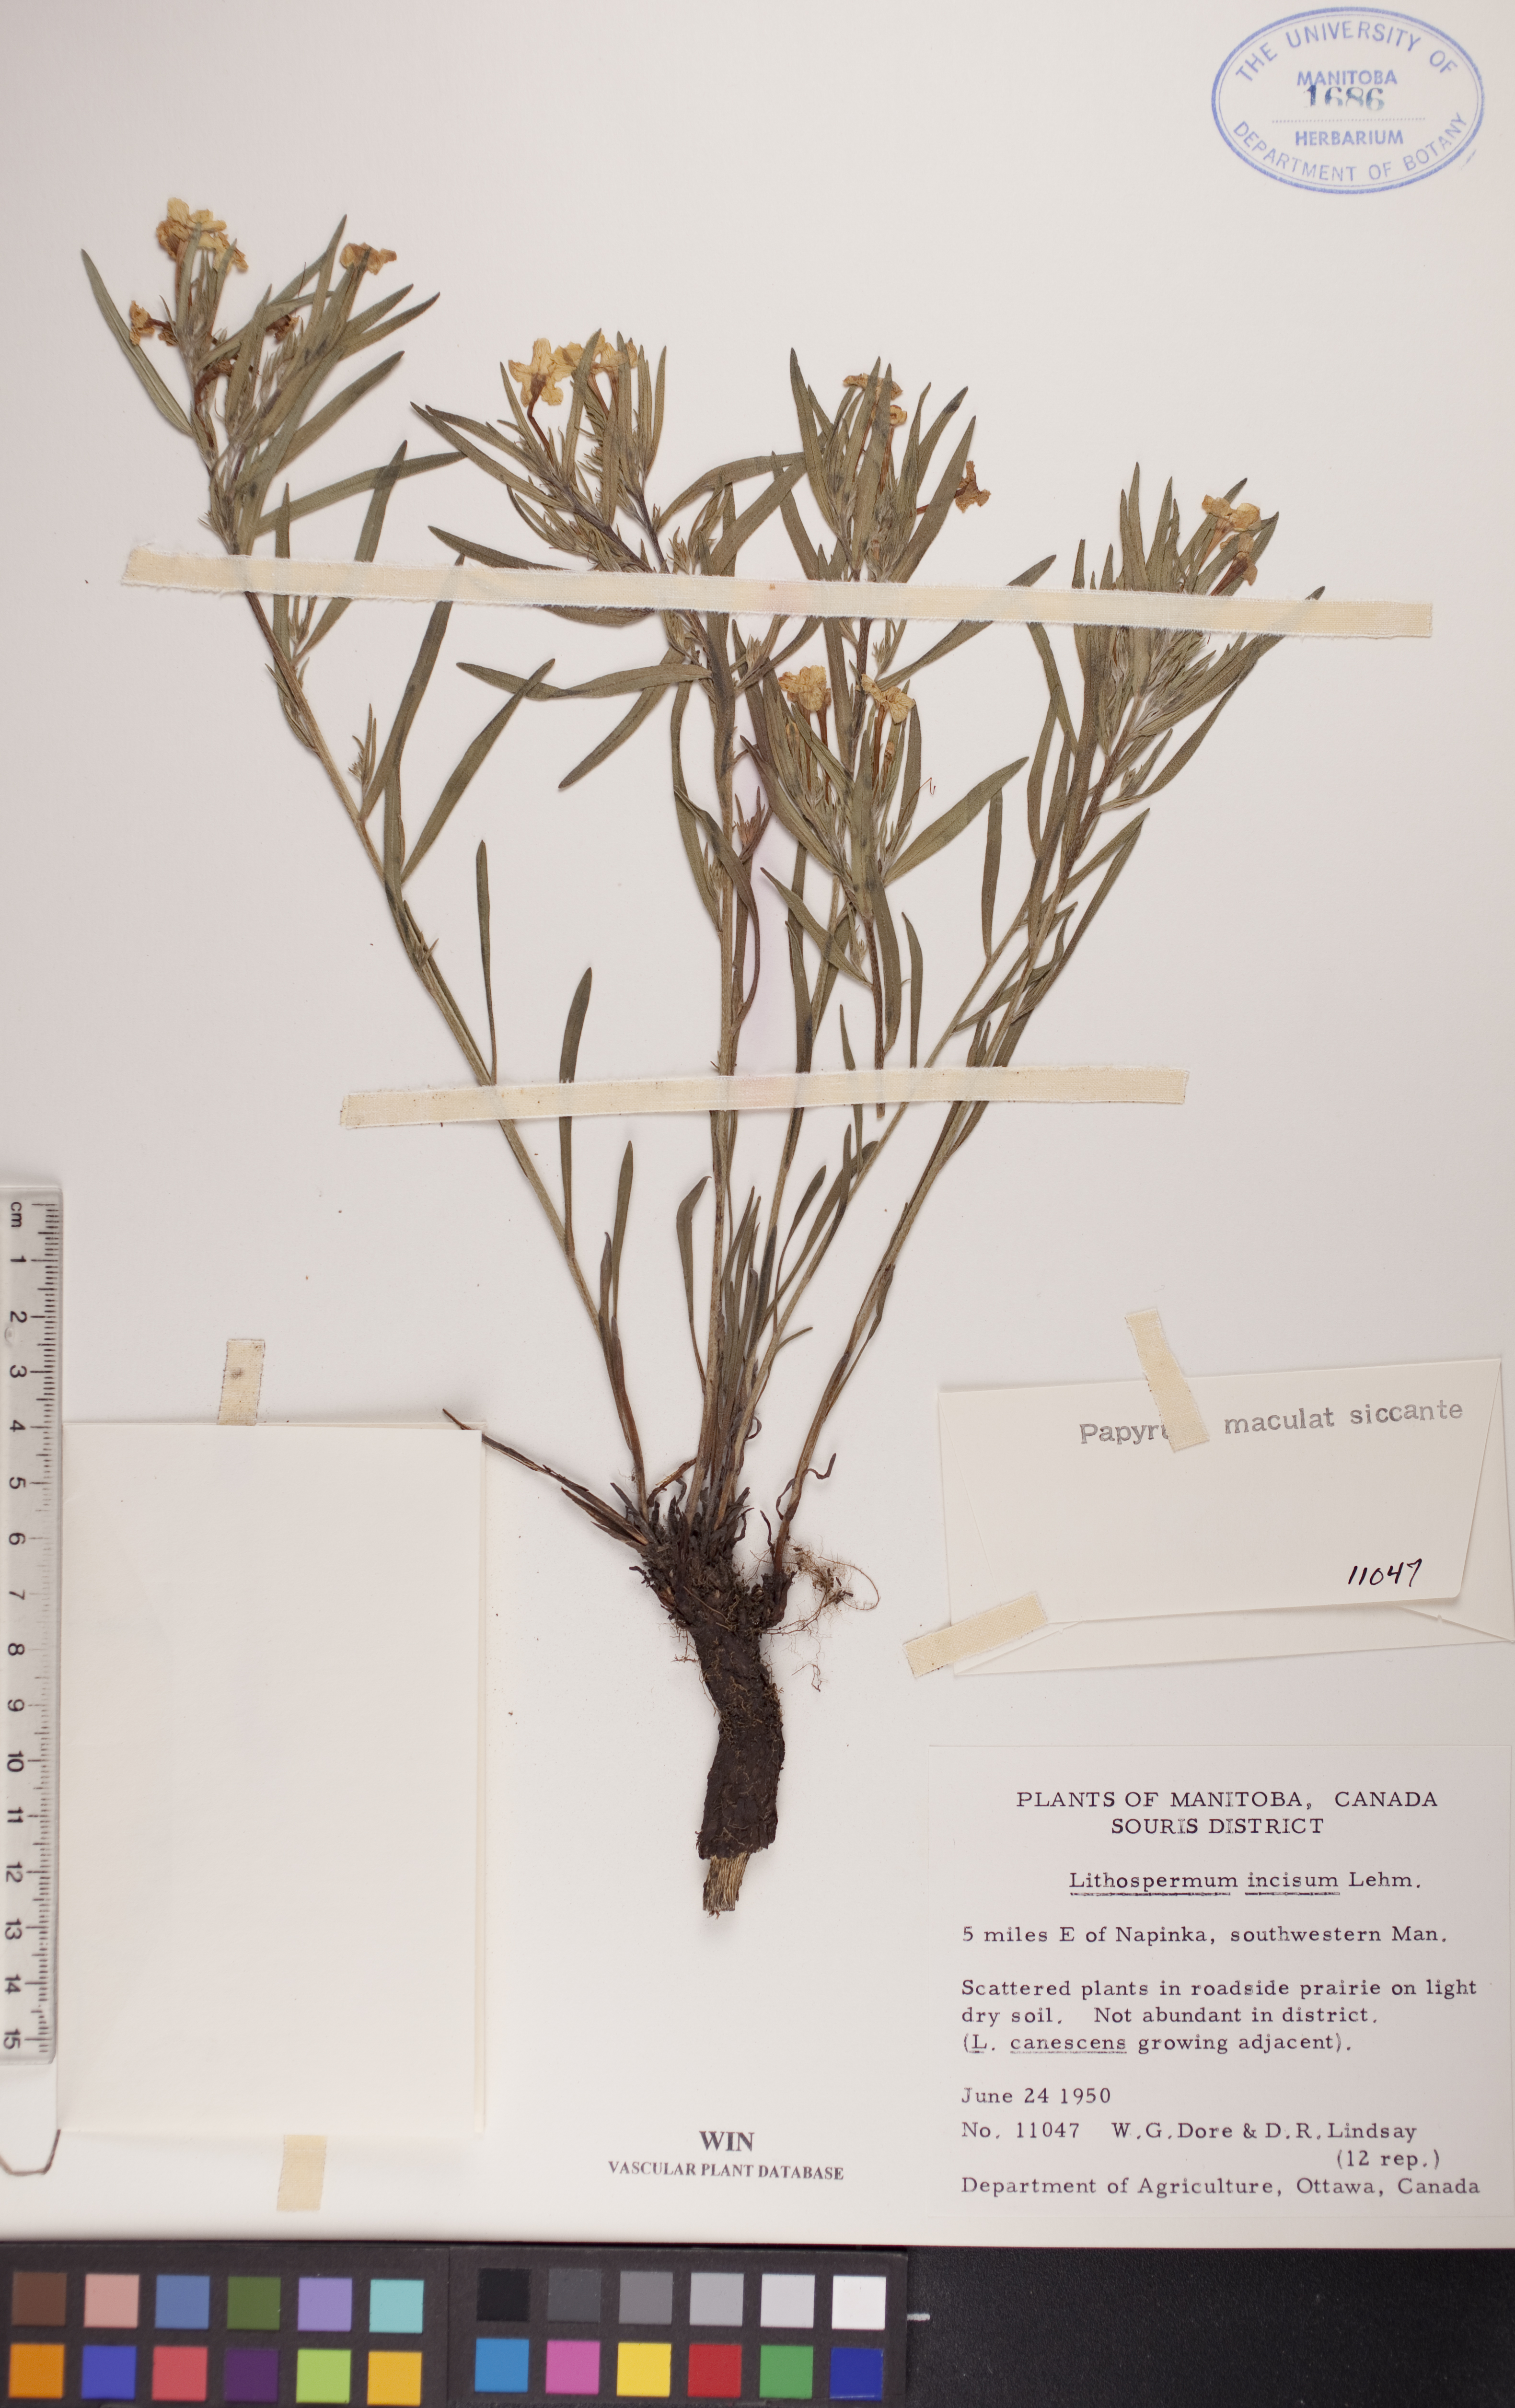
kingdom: Plantae
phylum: Tracheophyta
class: Magnoliopsida
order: Boraginales
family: Boraginaceae
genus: Lithospermum
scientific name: Lithospermum incisum
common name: Fringed gromwell
